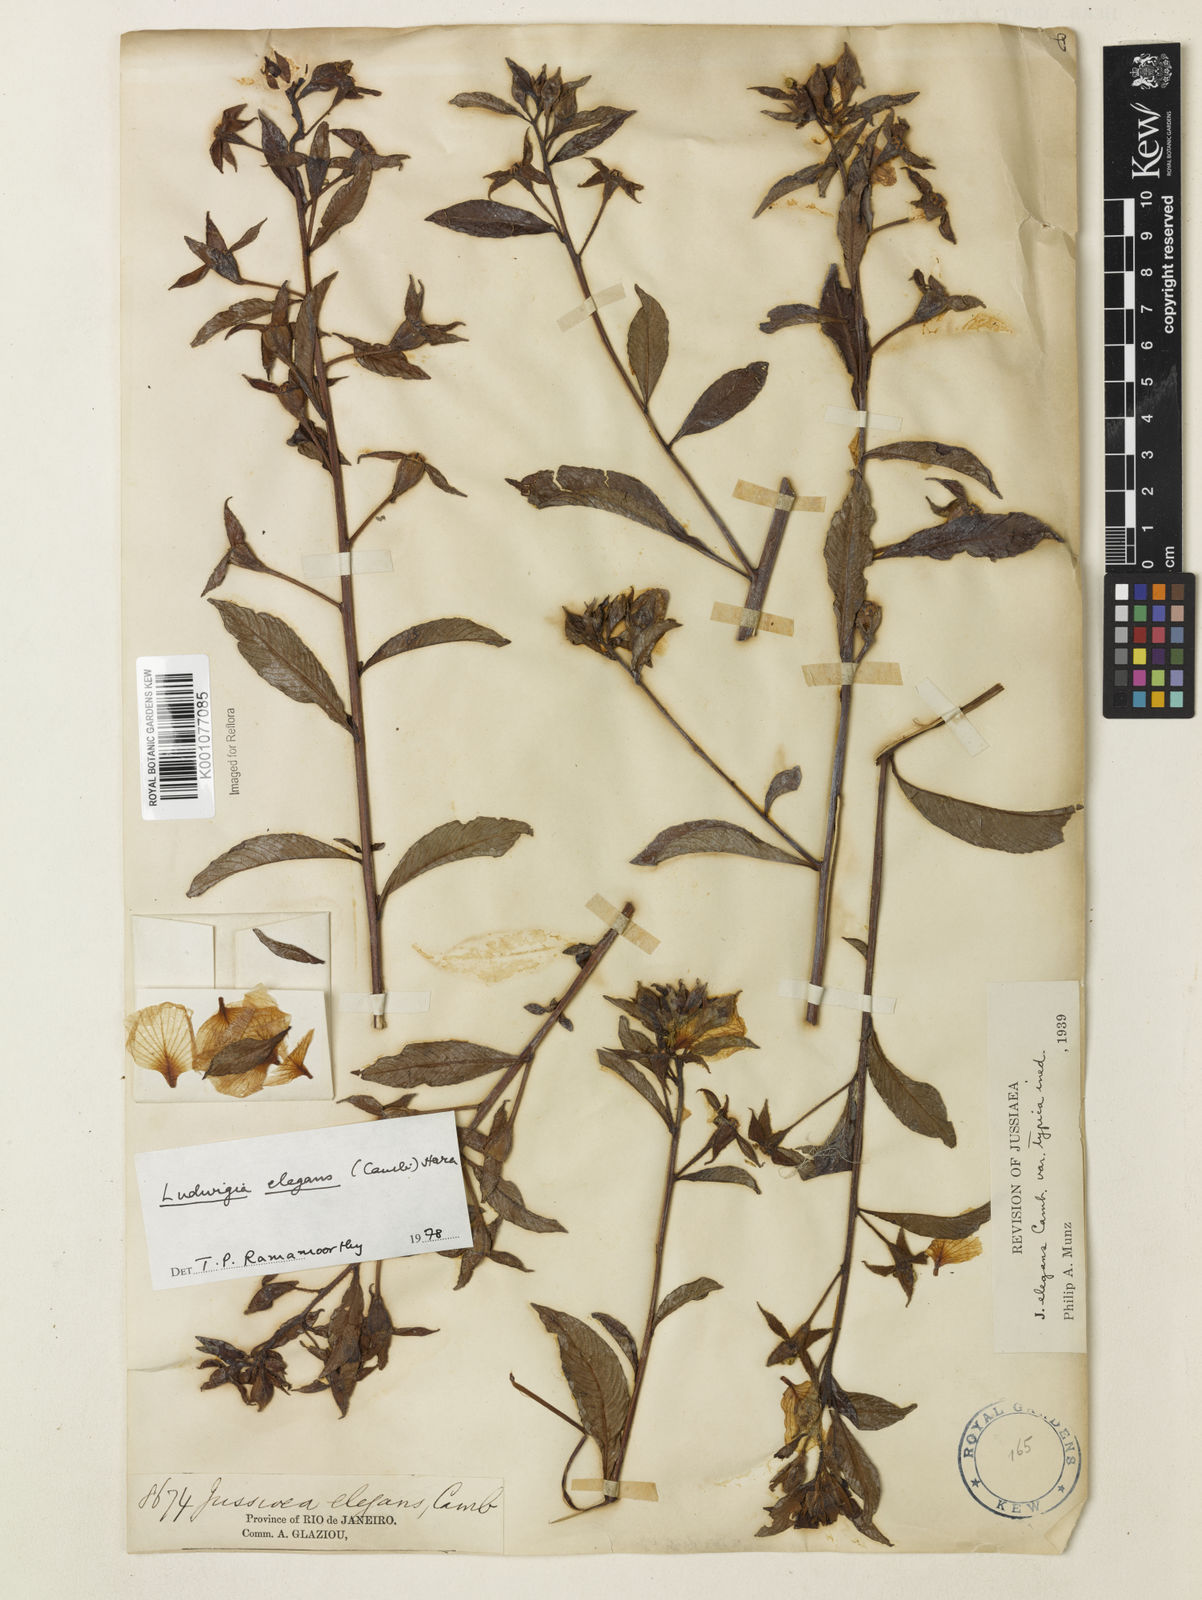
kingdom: Plantae
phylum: Tracheophyta
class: Magnoliopsida
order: Myrtales
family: Onagraceae
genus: Ludwigia
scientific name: Ludwigia elegans
